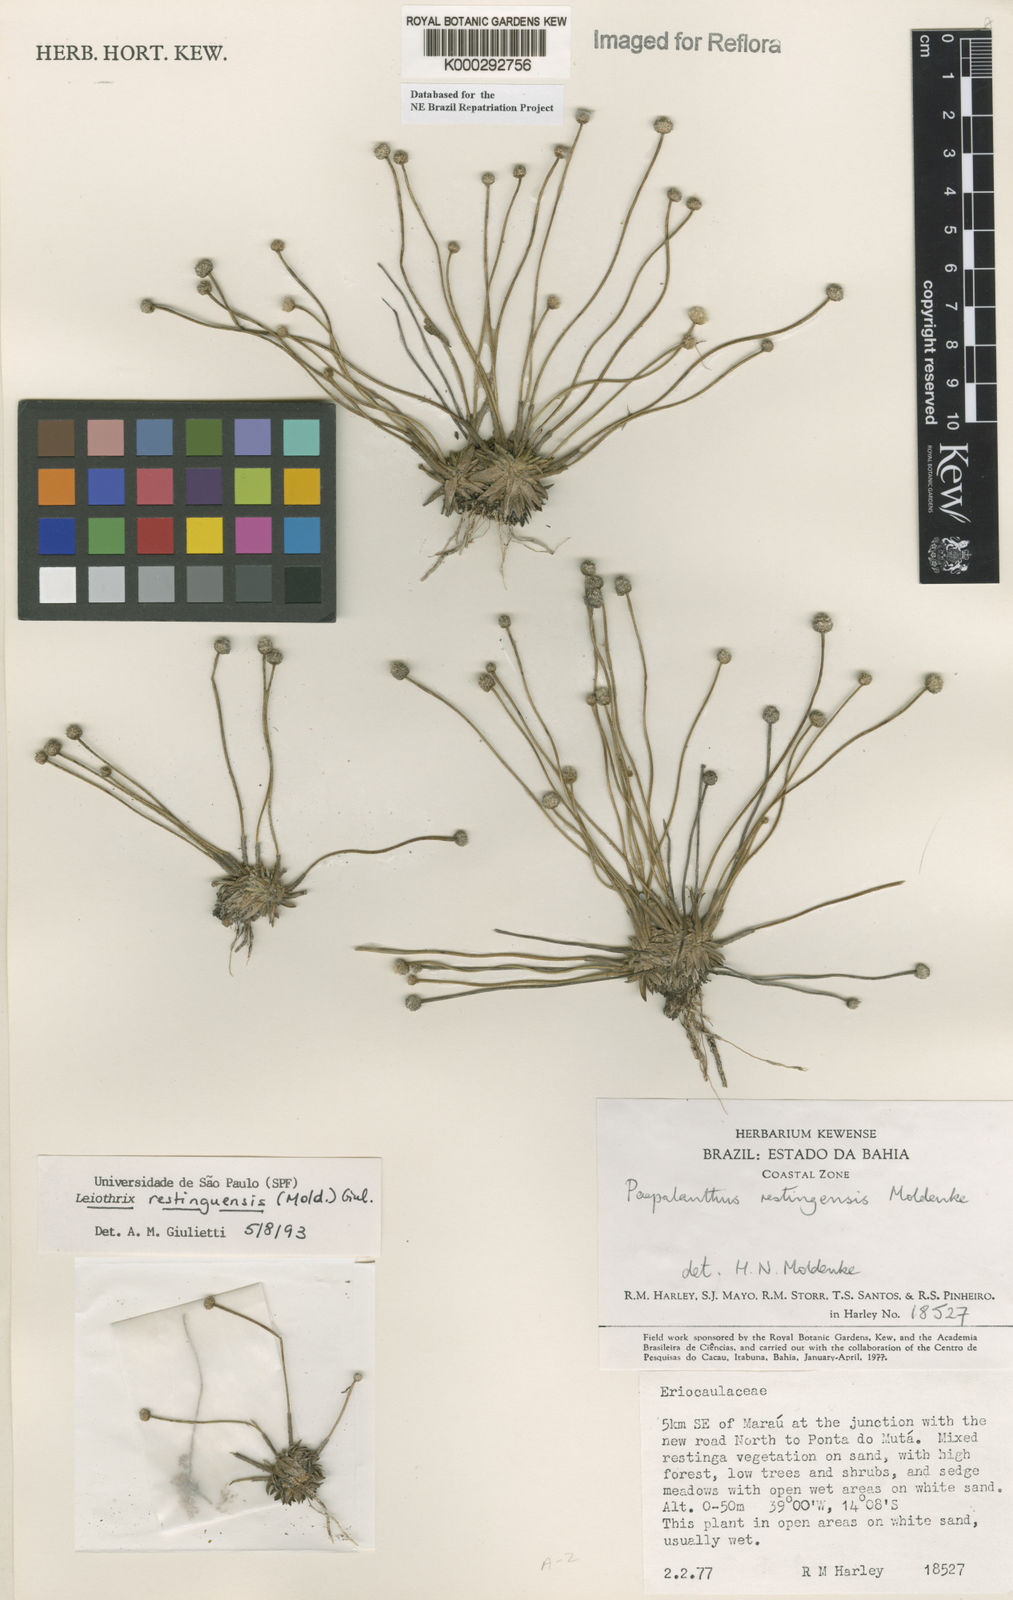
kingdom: Plantae
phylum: Tracheophyta
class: Liliopsida
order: Poales
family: Eriocaulaceae
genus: Leiothrix
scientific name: Leiothrix
